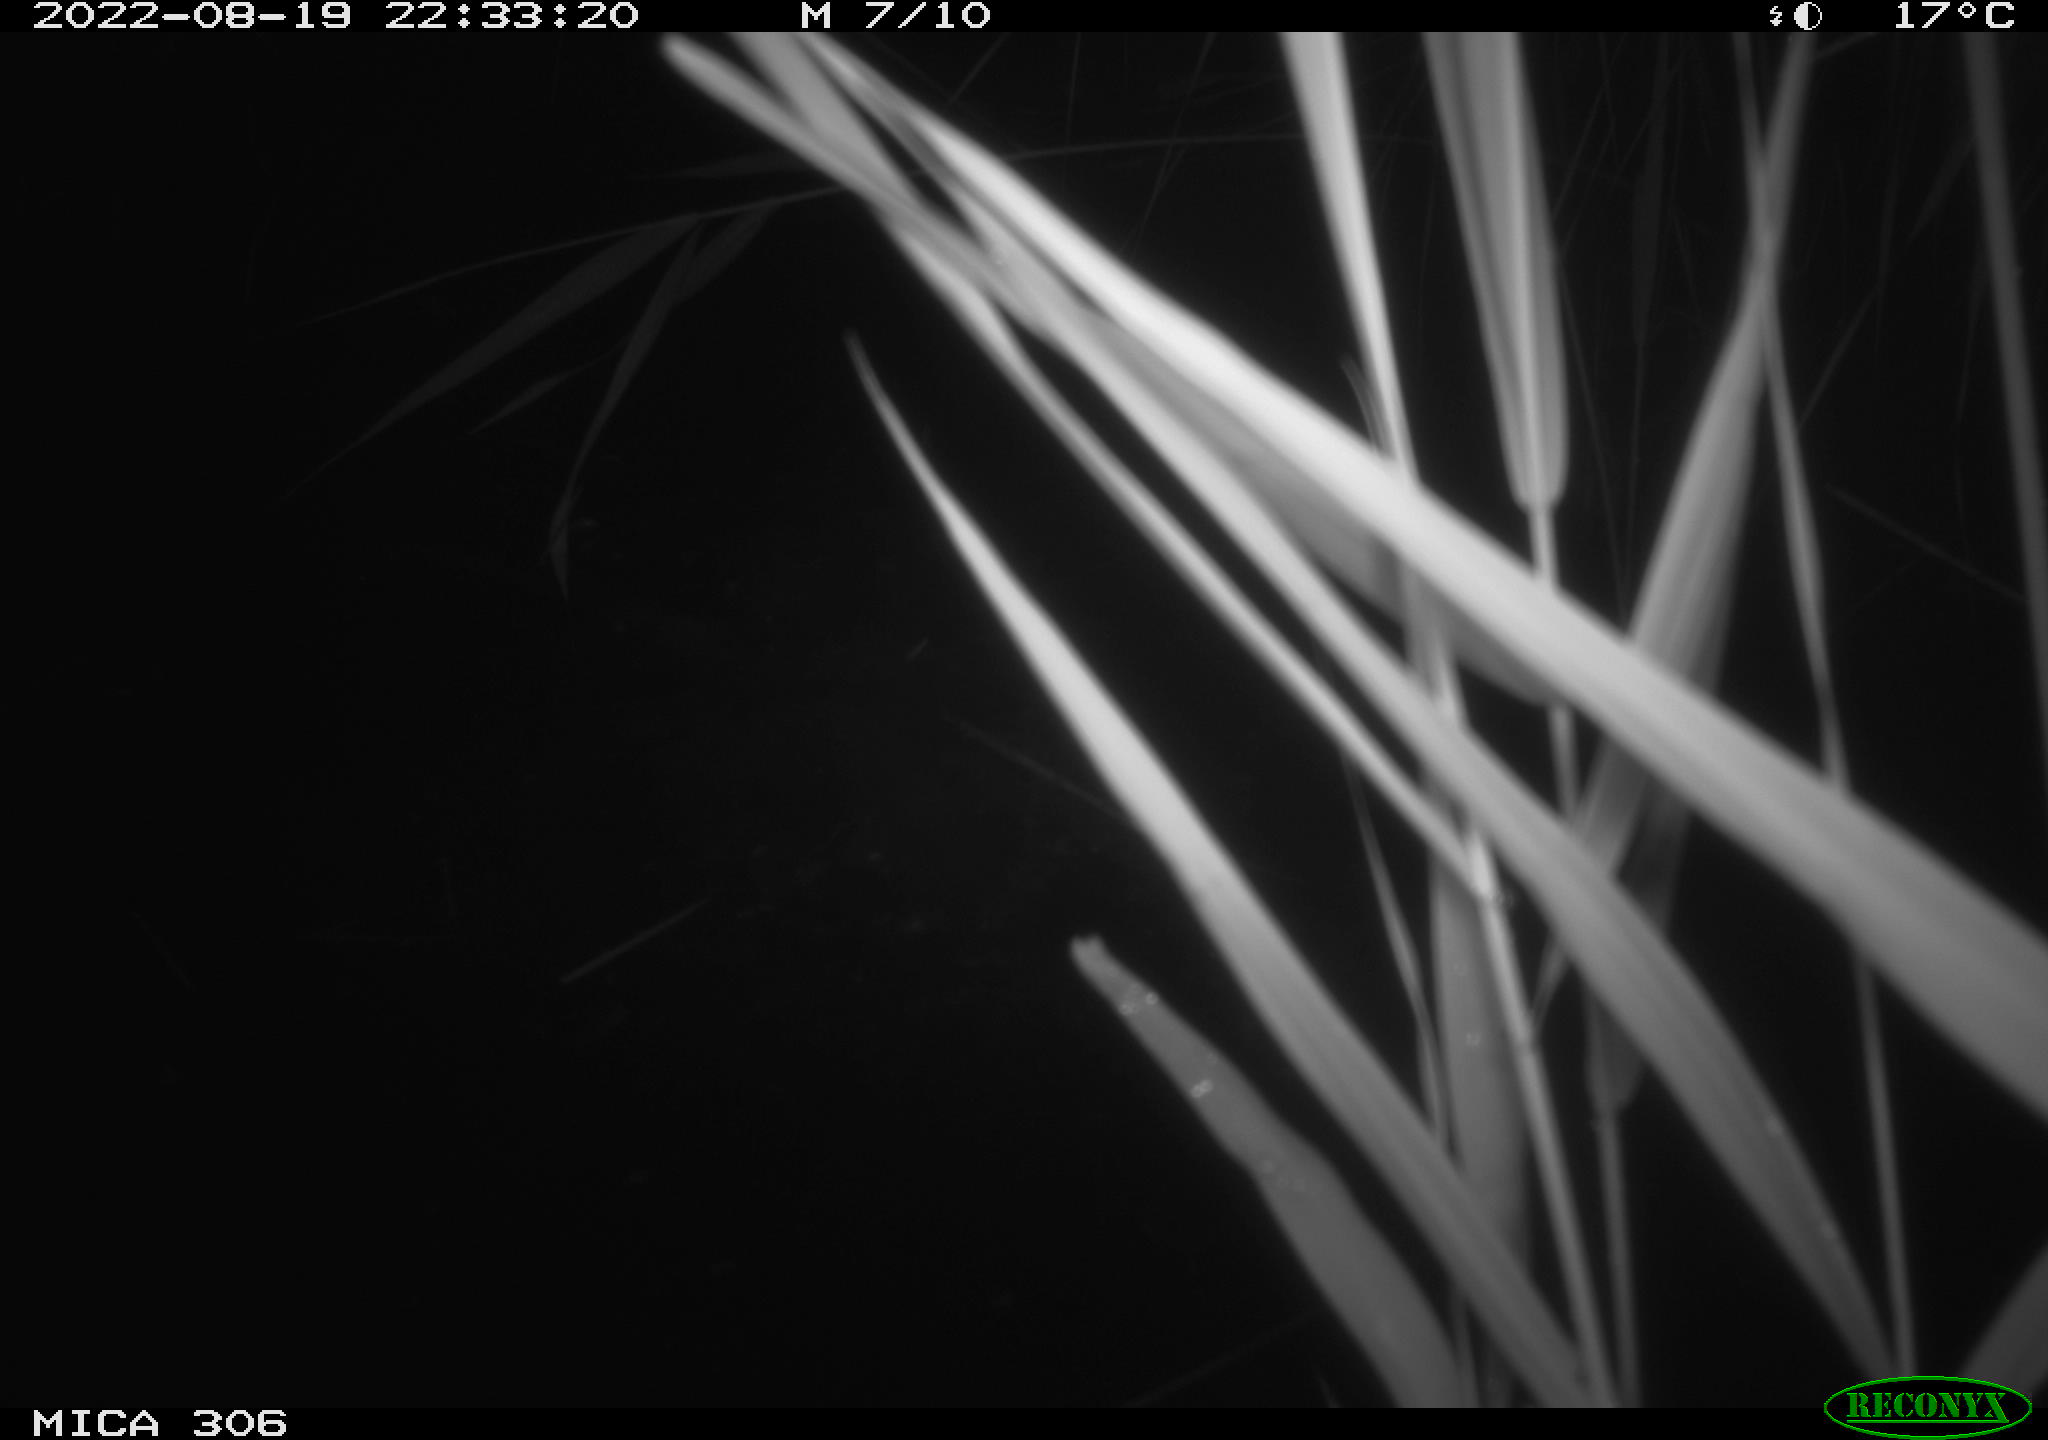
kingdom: Animalia
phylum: Chordata
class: Mammalia
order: Rodentia
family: Muridae
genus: Rattus
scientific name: Rattus norvegicus
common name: Brown rat
